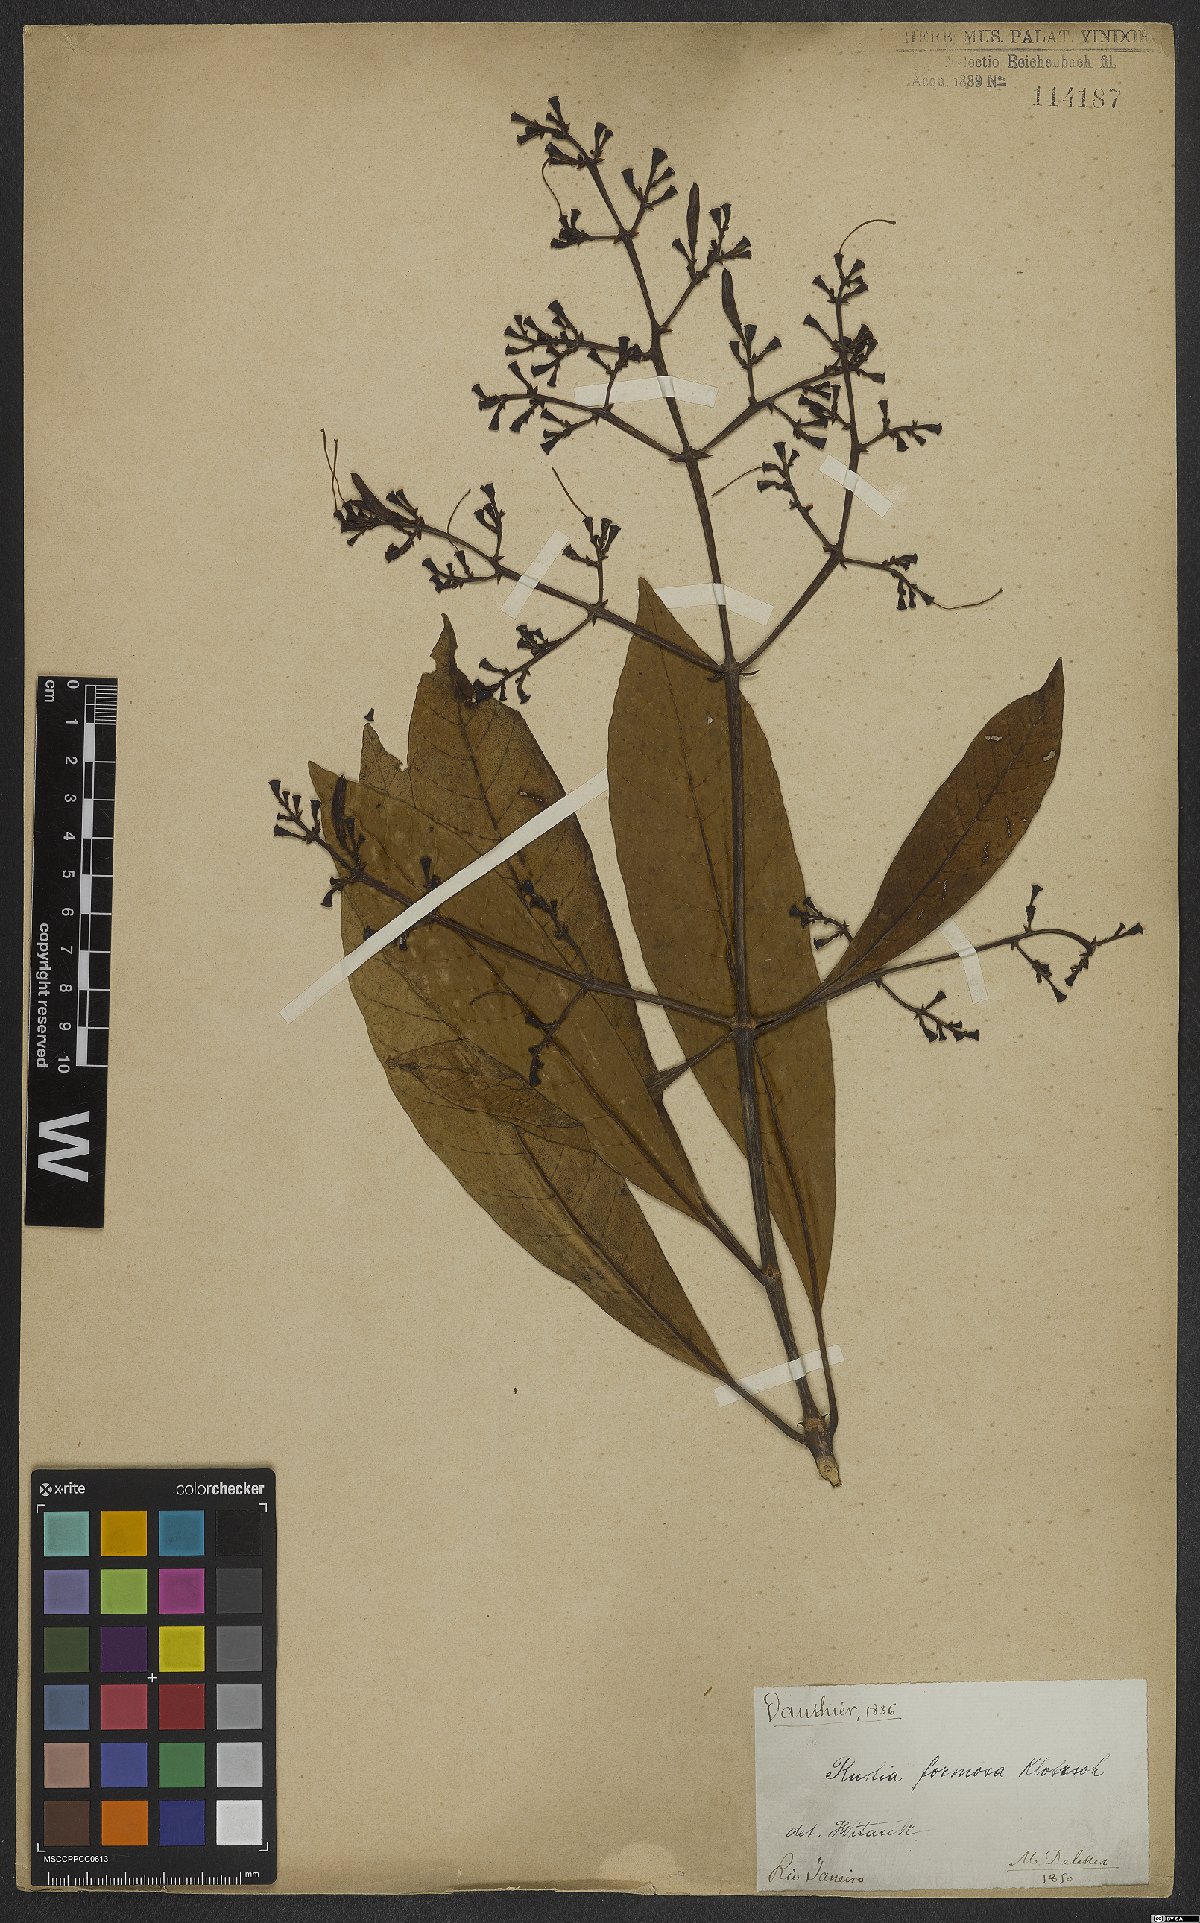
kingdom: Plantae
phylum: Tracheophyta
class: Magnoliopsida
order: Gentianales
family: Rubiaceae
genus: Rustia
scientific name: Rustia formosa
